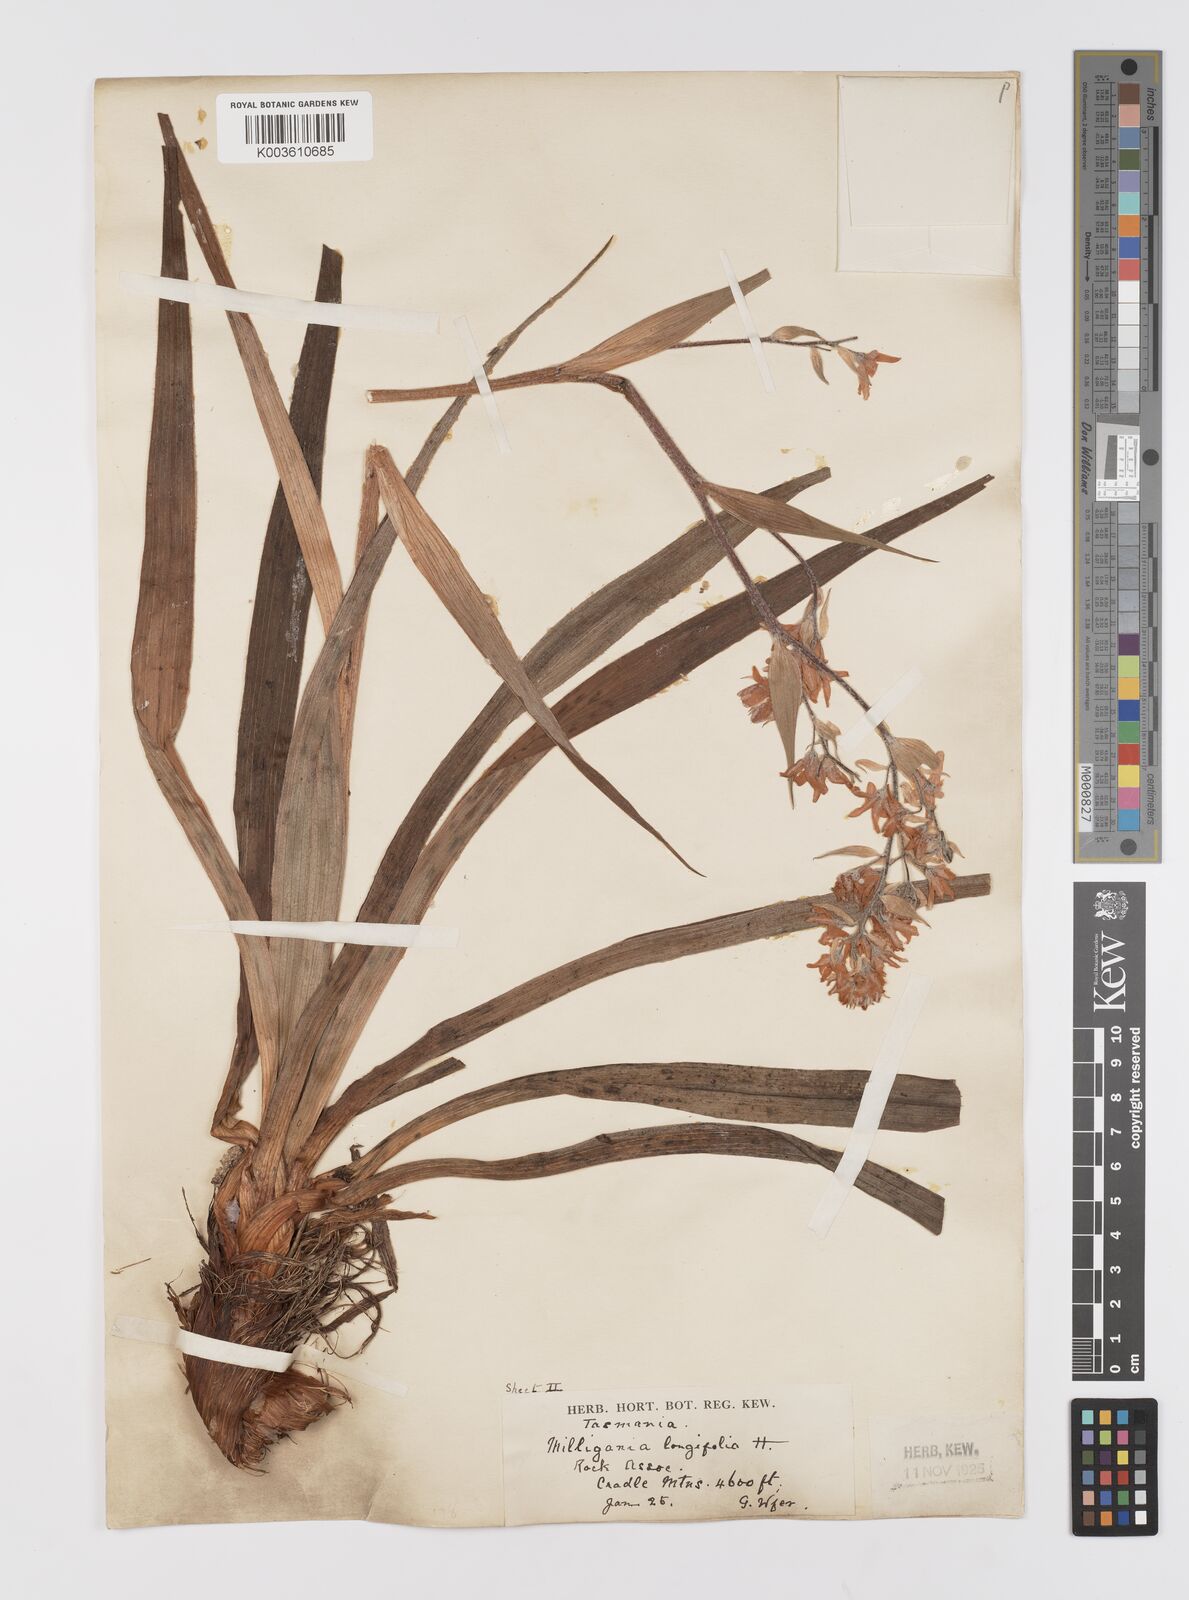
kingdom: Plantae
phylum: Tracheophyta
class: Liliopsida
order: Asparagales
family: Asteliaceae
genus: Milligania
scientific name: Milligania longifolia
